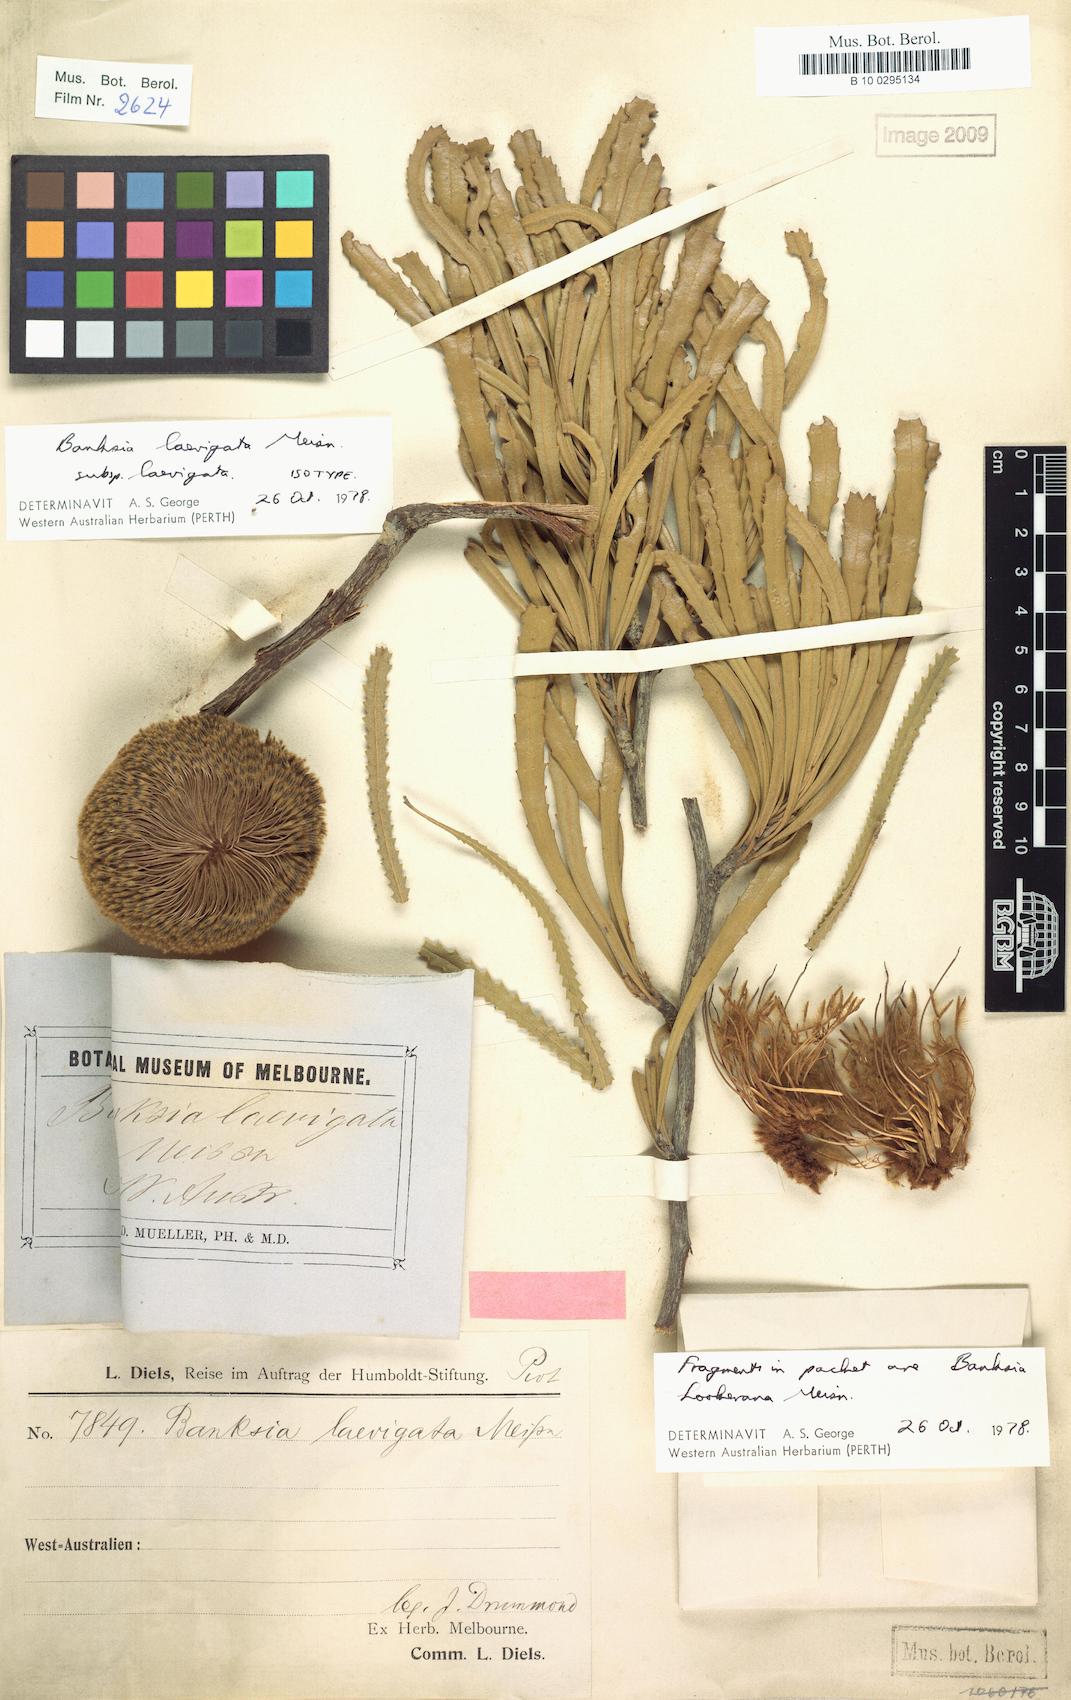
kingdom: Plantae
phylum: Tracheophyta
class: Magnoliopsida
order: Proteales
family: Proteaceae
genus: Banksia
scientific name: Banksia laevigata
